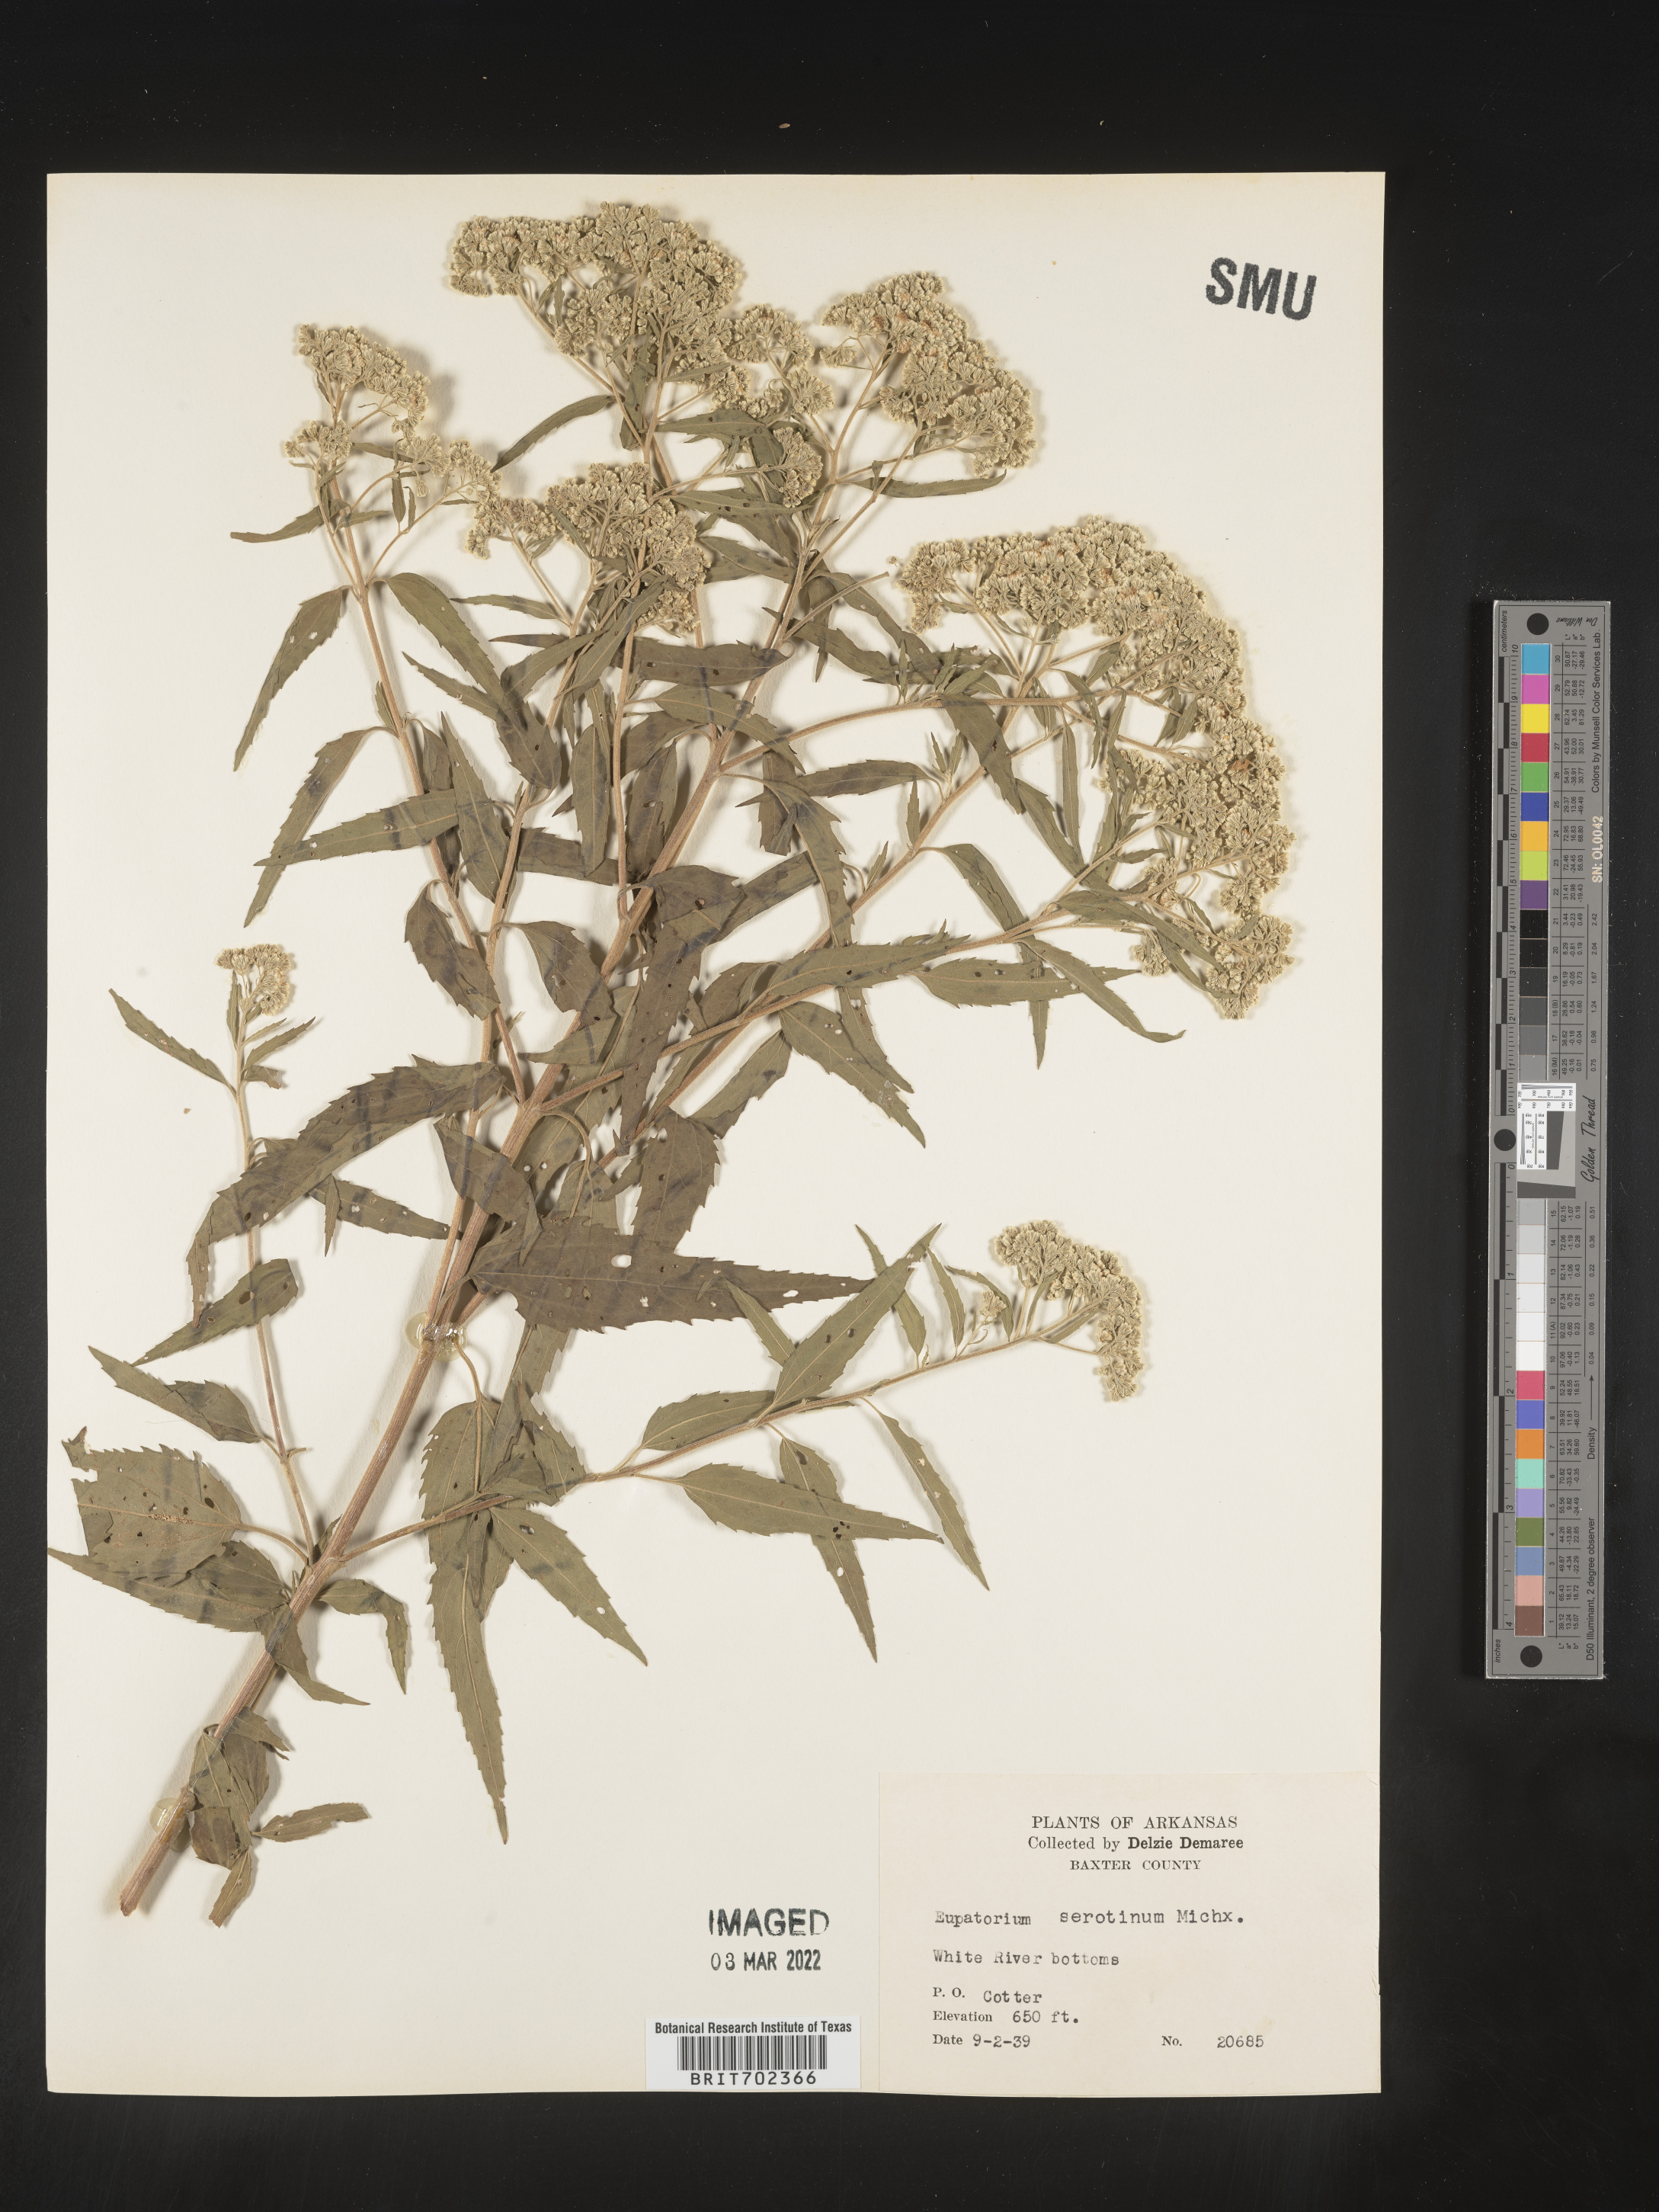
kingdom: Plantae
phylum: Tracheophyta
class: Magnoliopsida
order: Asterales
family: Asteraceae
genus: Eupatorium
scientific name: Eupatorium serotinum
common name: Late boneset
